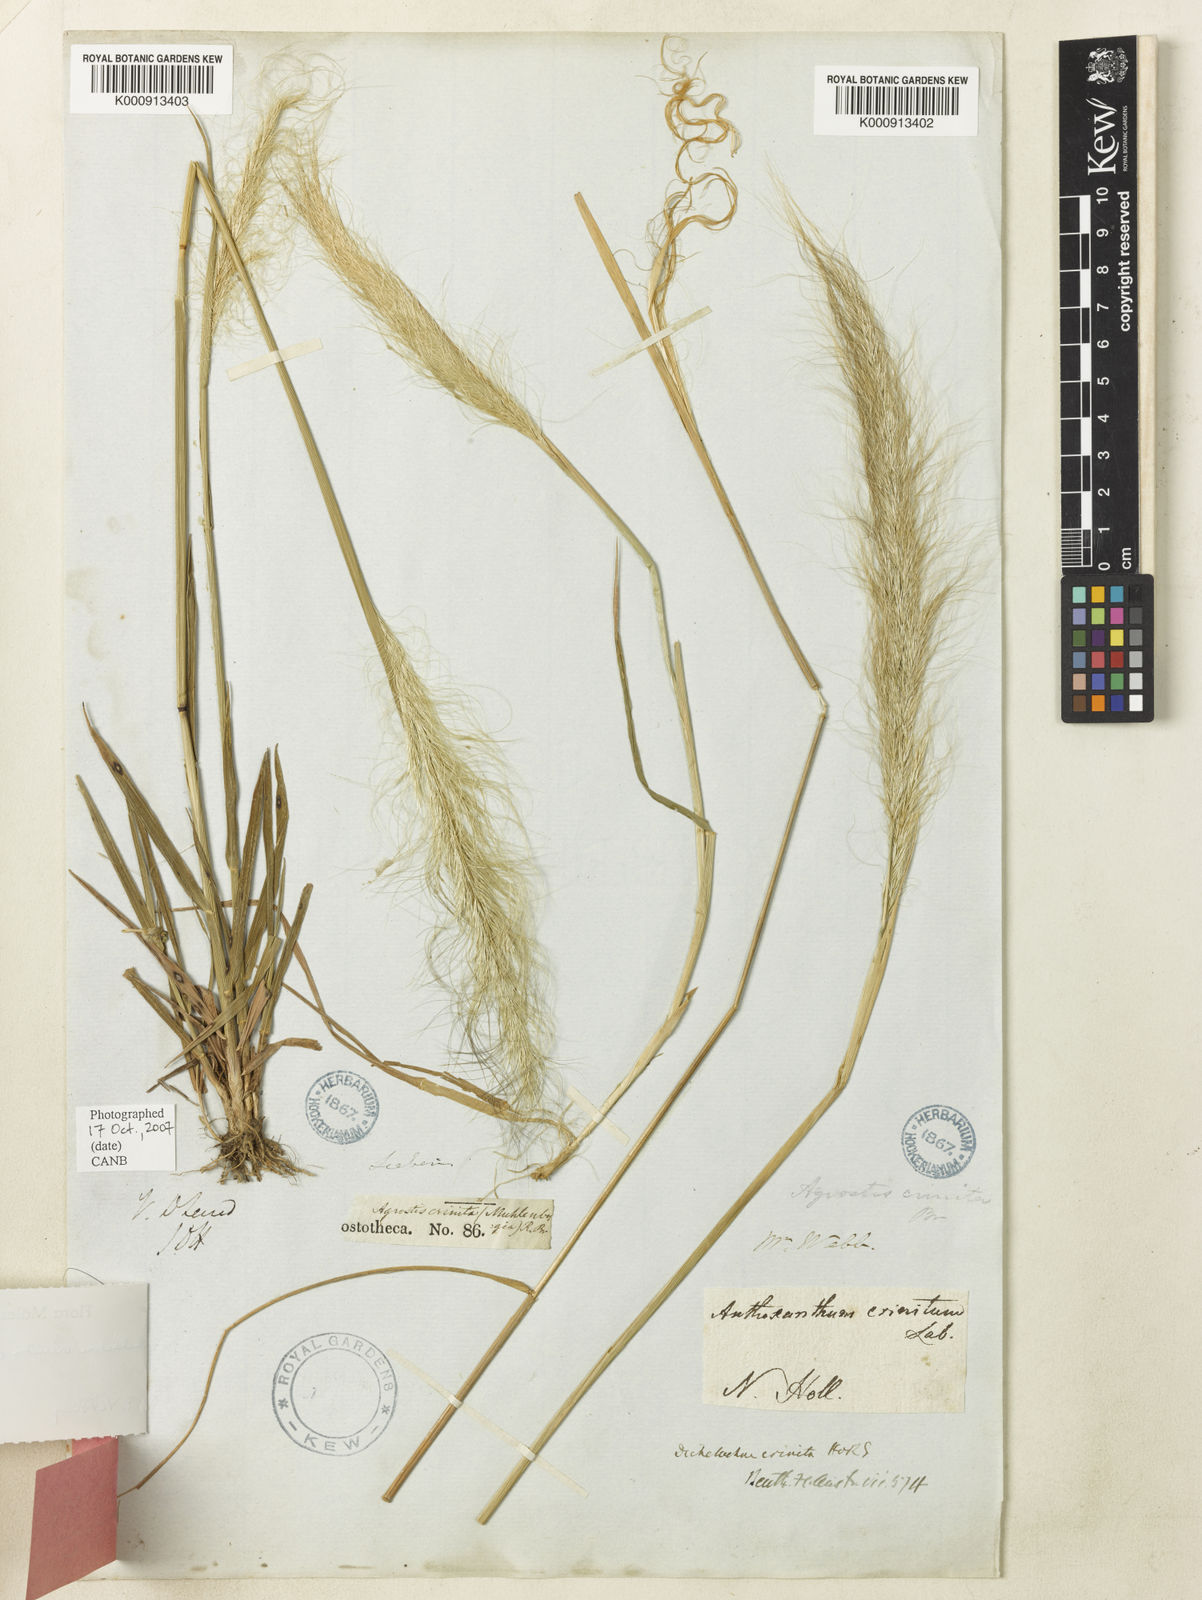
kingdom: Plantae
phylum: Tracheophyta
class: Liliopsida
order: Poales
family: Poaceae
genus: Dichelachne
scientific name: Dichelachne crinita
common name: Clovenfoot plumegrass
